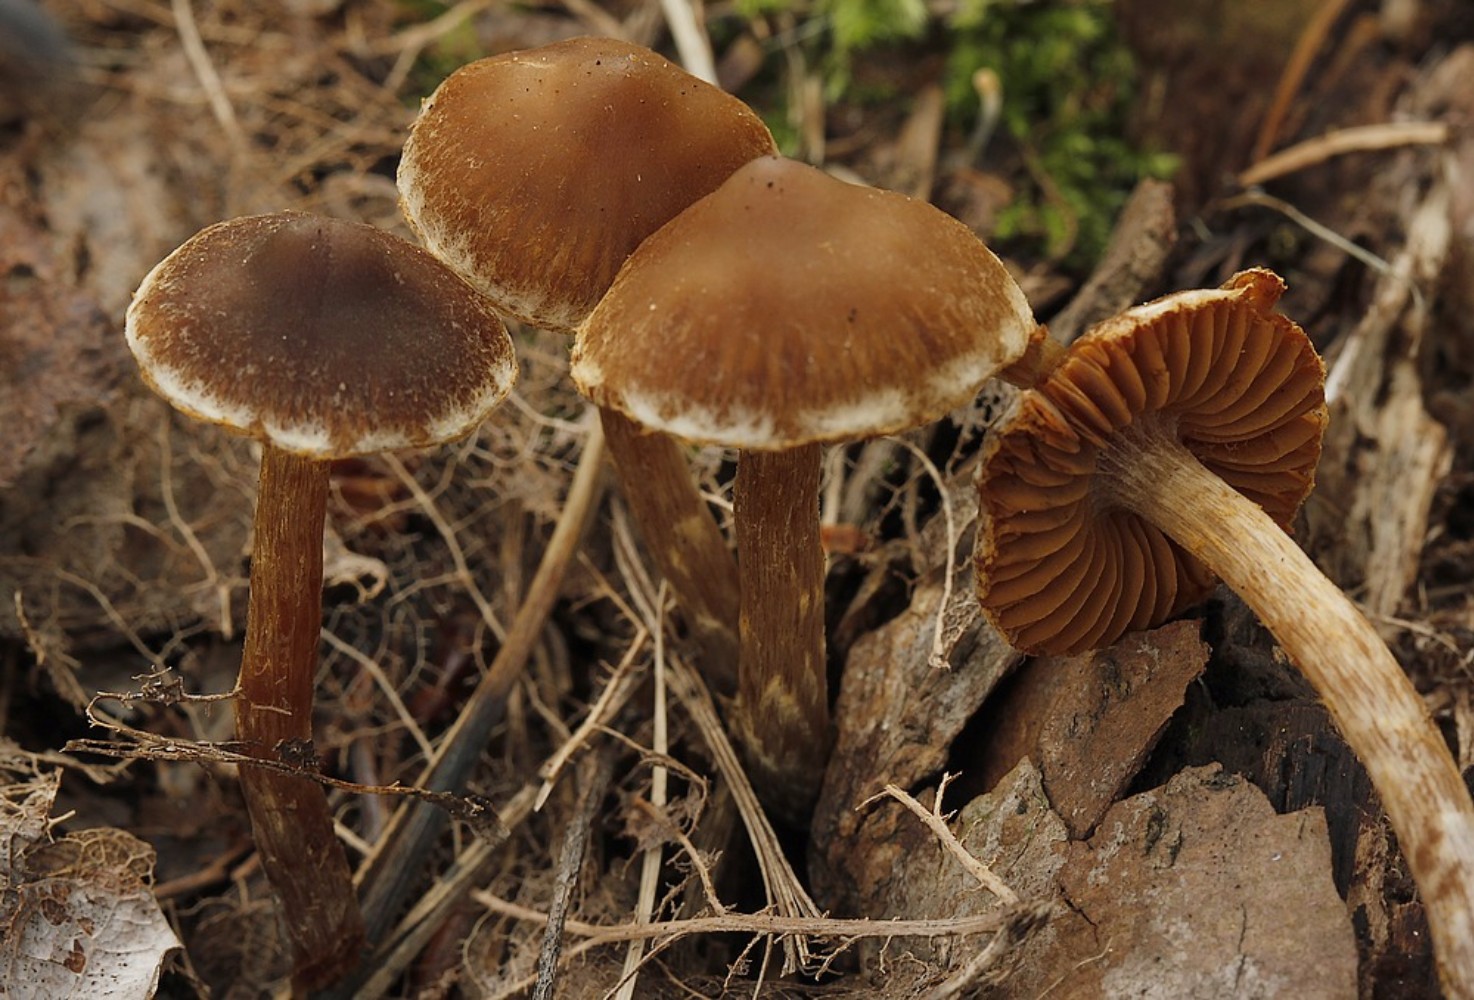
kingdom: Fungi
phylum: Basidiomycota
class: Agaricomycetes
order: Agaricales
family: Cortinariaceae
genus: Cortinarius
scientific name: Cortinarius
